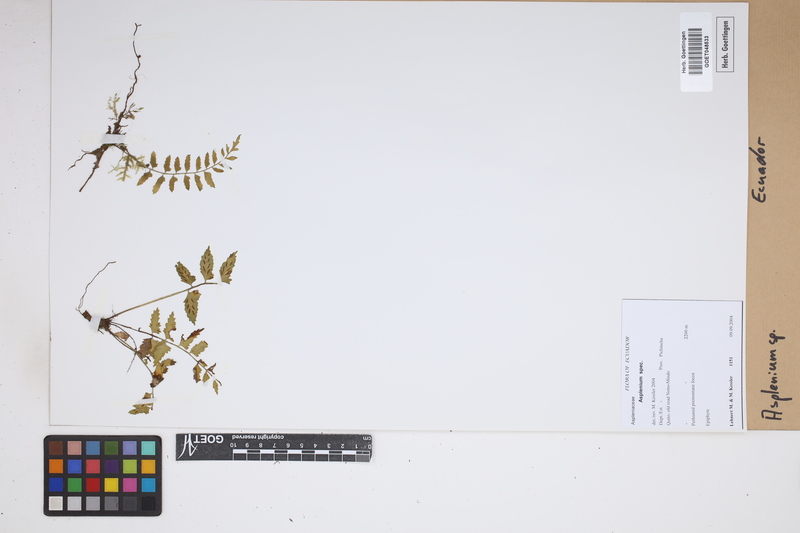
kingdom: Plantae
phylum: Tracheophyta
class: Polypodiopsida
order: Polypodiales
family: Aspleniaceae
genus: Asplenium
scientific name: Asplenium
